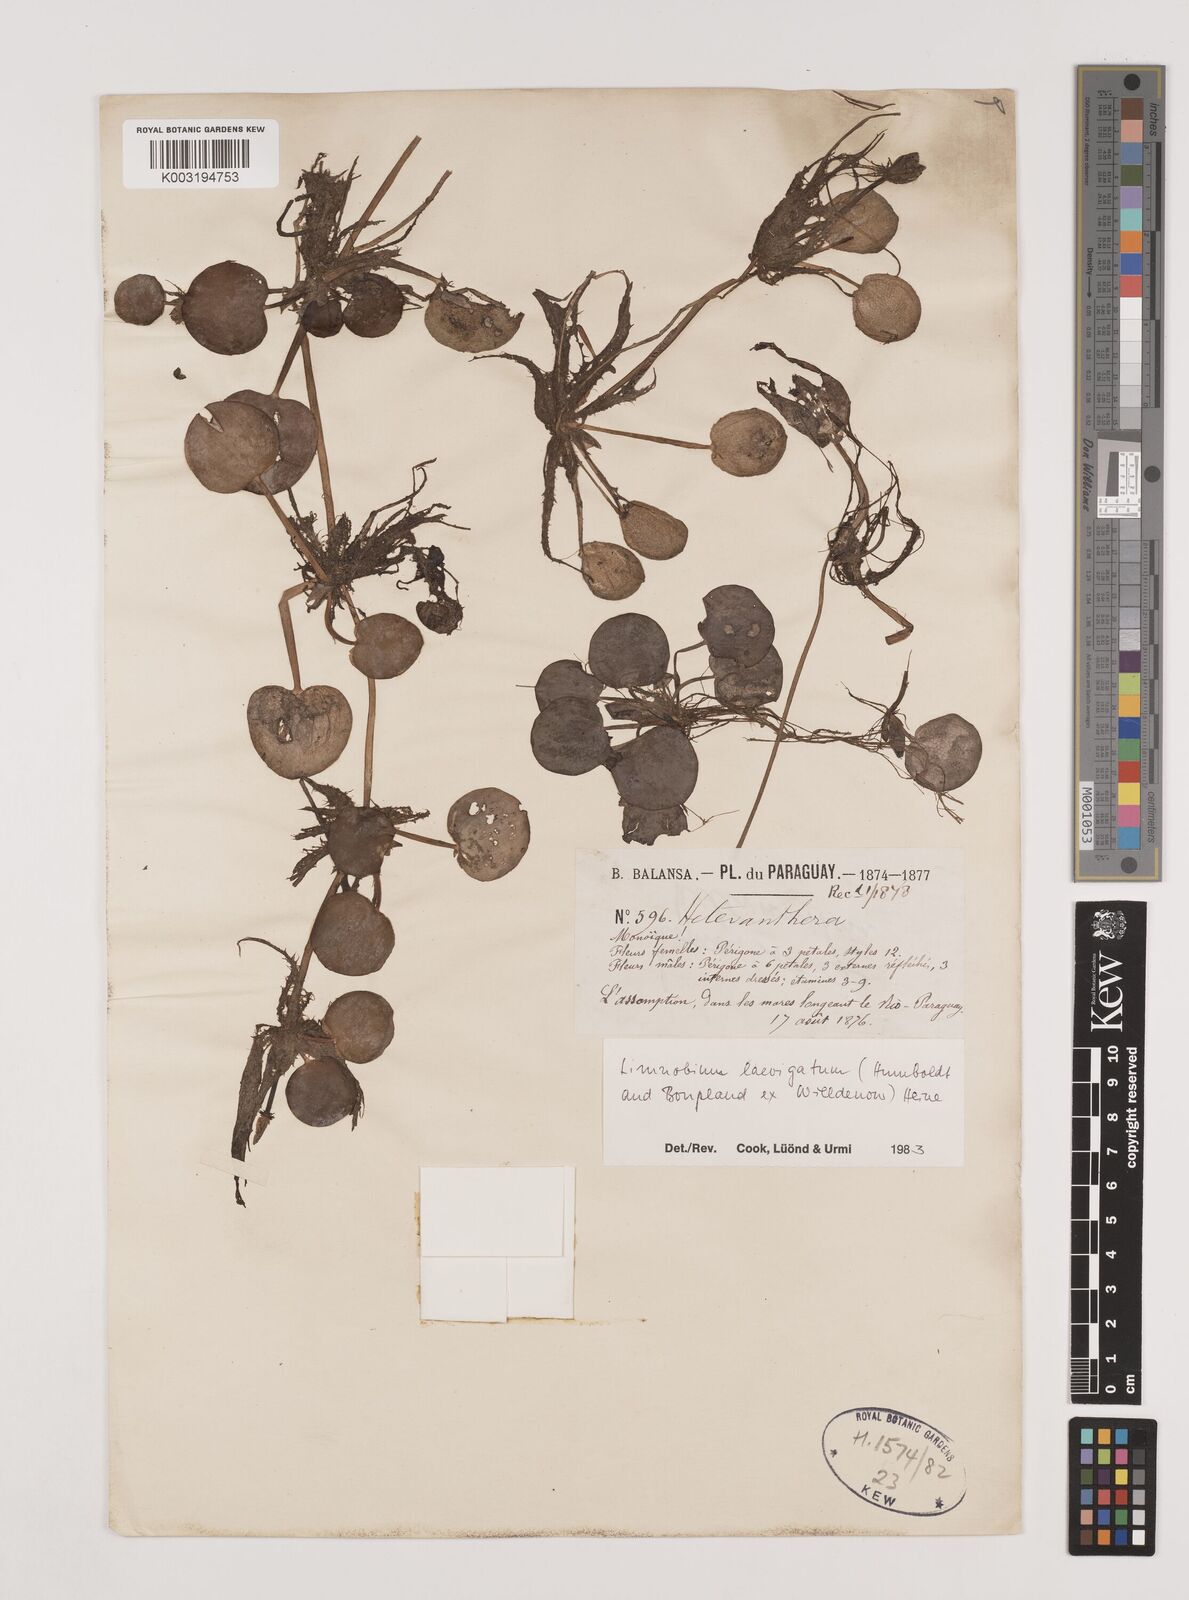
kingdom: Plantae
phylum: Tracheophyta
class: Liliopsida
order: Alismatales
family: Hydrocharitaceae
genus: Hydrocharis
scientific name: Hydrocharis laevigata
